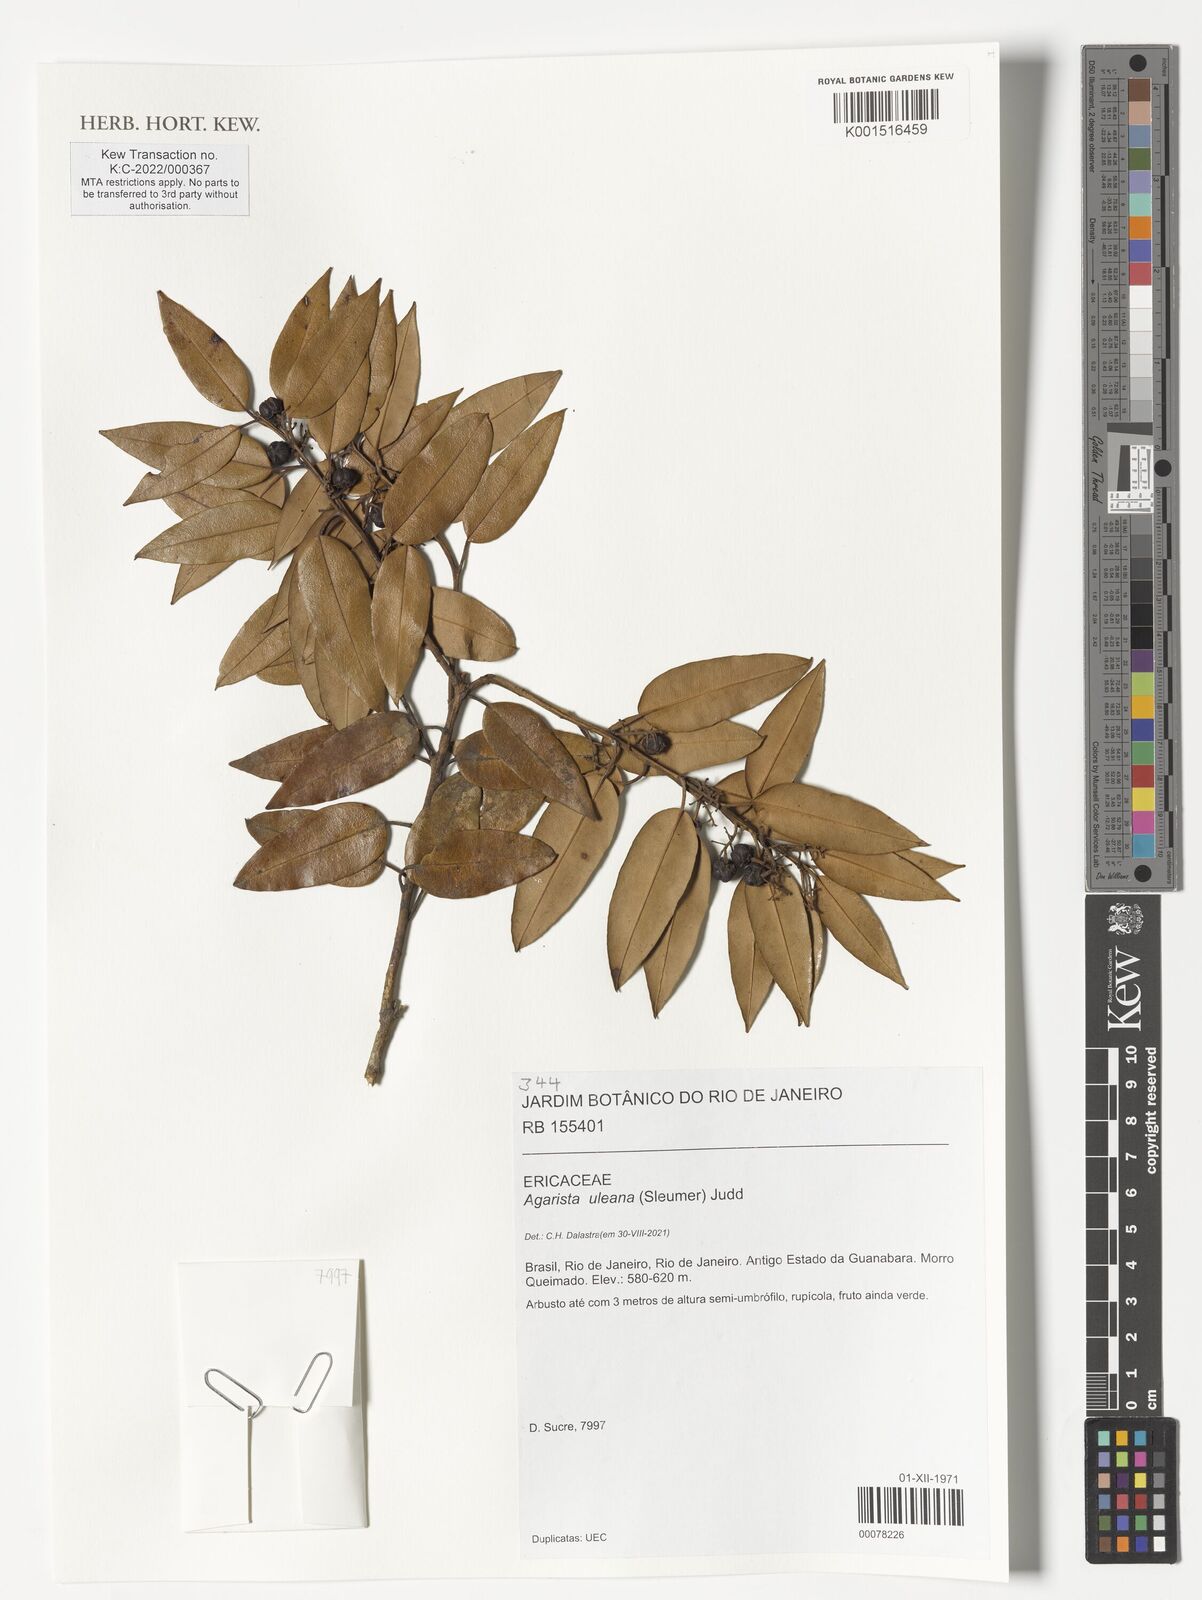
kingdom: Plantae
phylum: Tracheophyta
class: Magnoliopsida
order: Ericales
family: Ericaceae
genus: Agarista
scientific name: Agarista uleana
